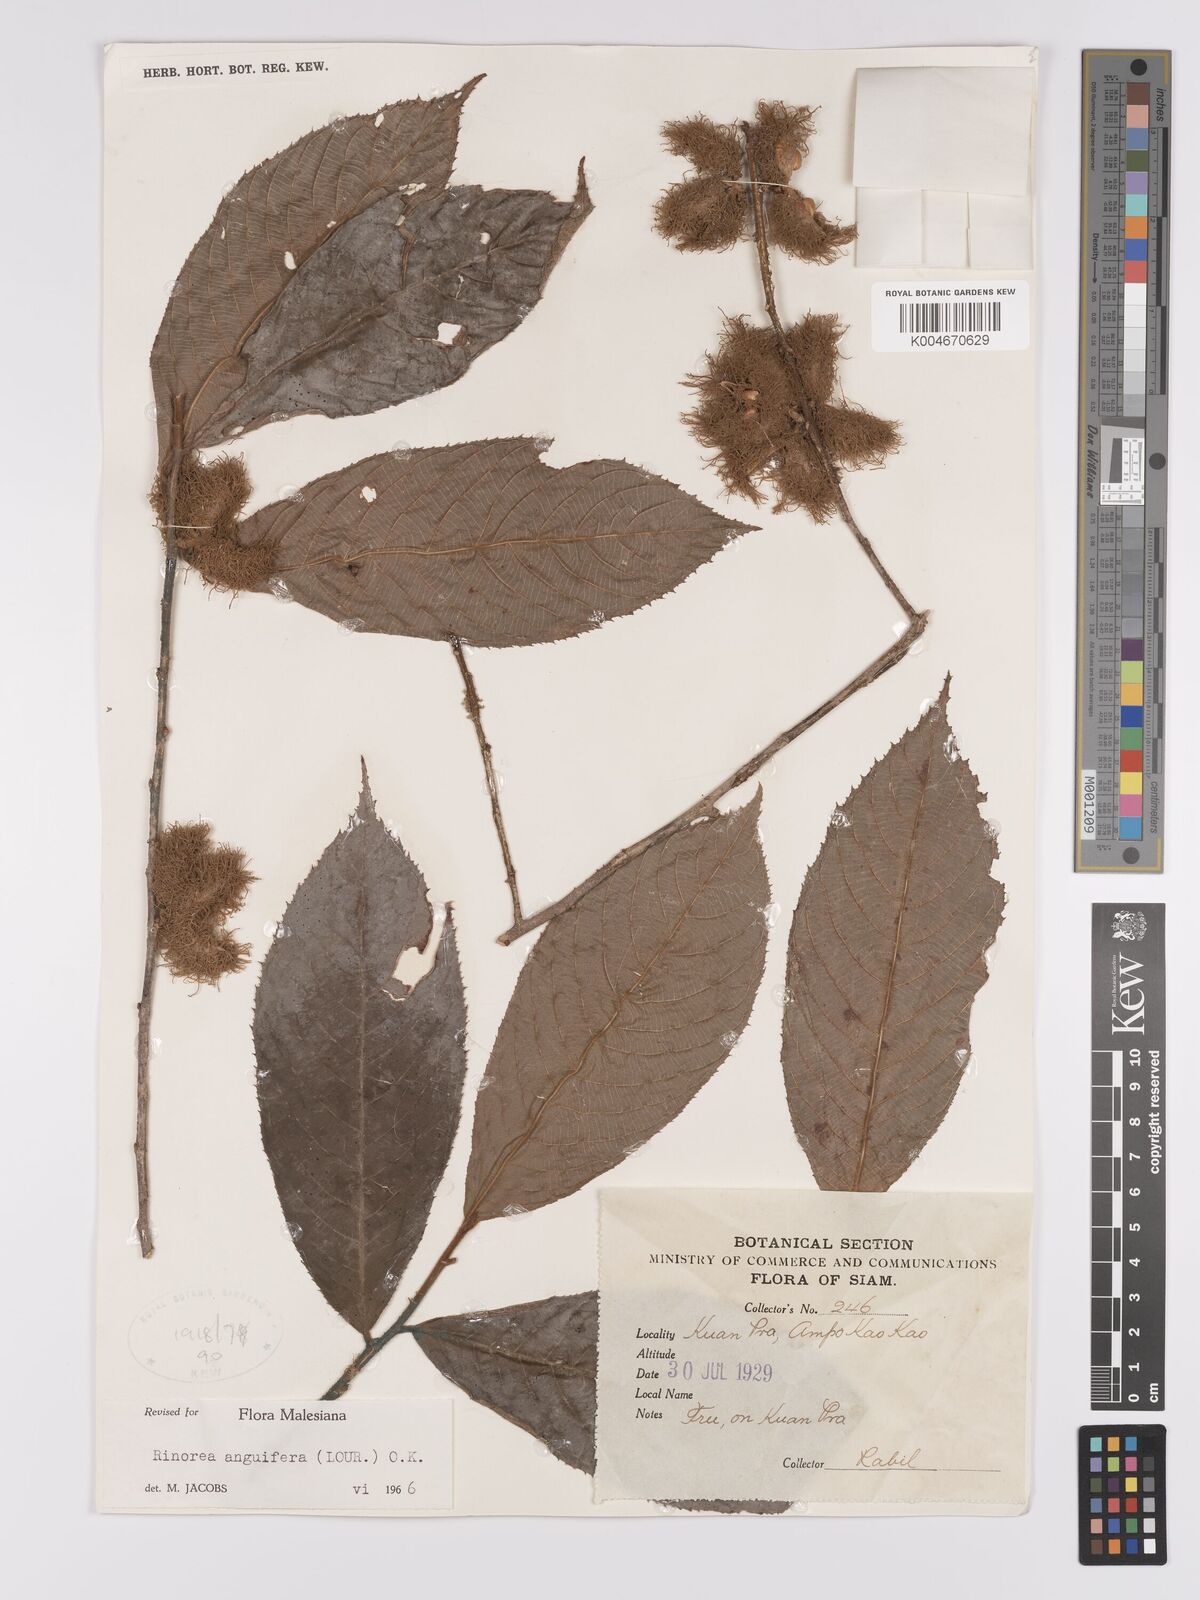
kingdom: Plantae
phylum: Tracheophyta
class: Magnoliopsida
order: Malpighiales
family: Violaceae
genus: Rinorea
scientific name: Rinorea anguifera
